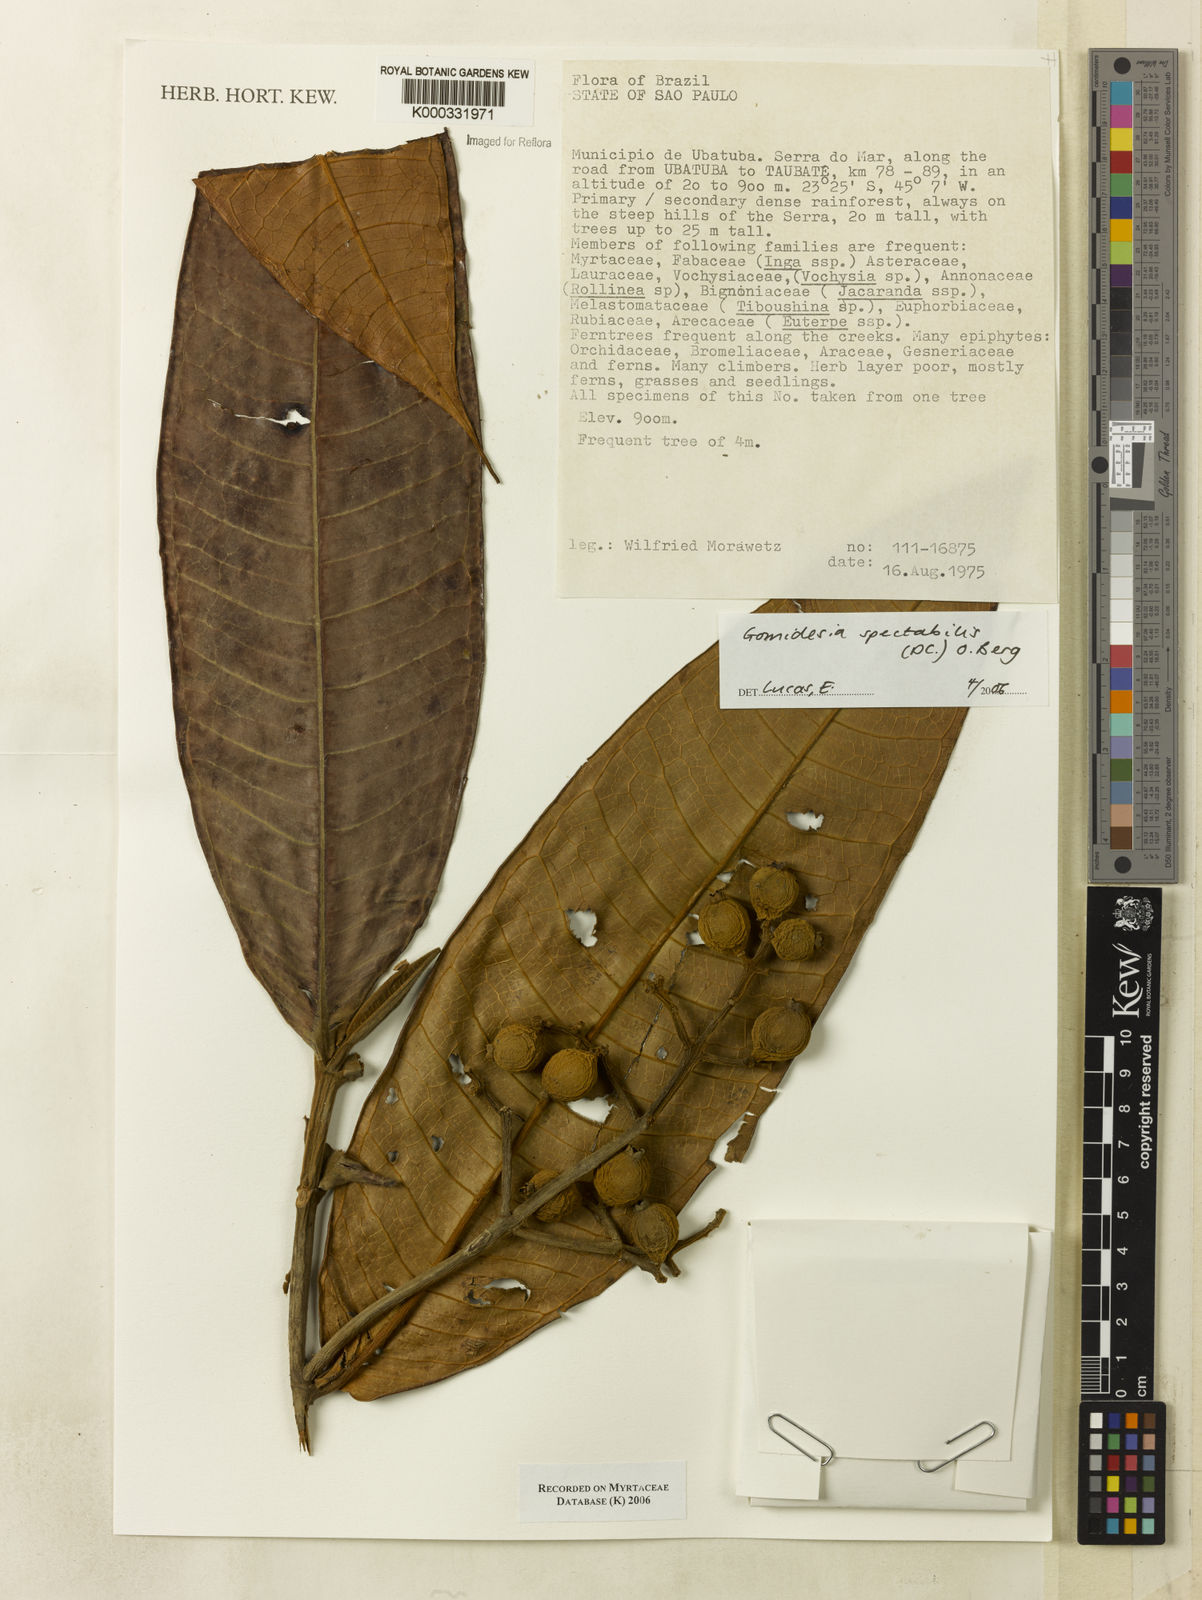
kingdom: Plantae
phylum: Tracheophyta
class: Magnoliopsida
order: Myrtales
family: Myrtaceae
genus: Myrcia
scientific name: Myrcia spectabilis
